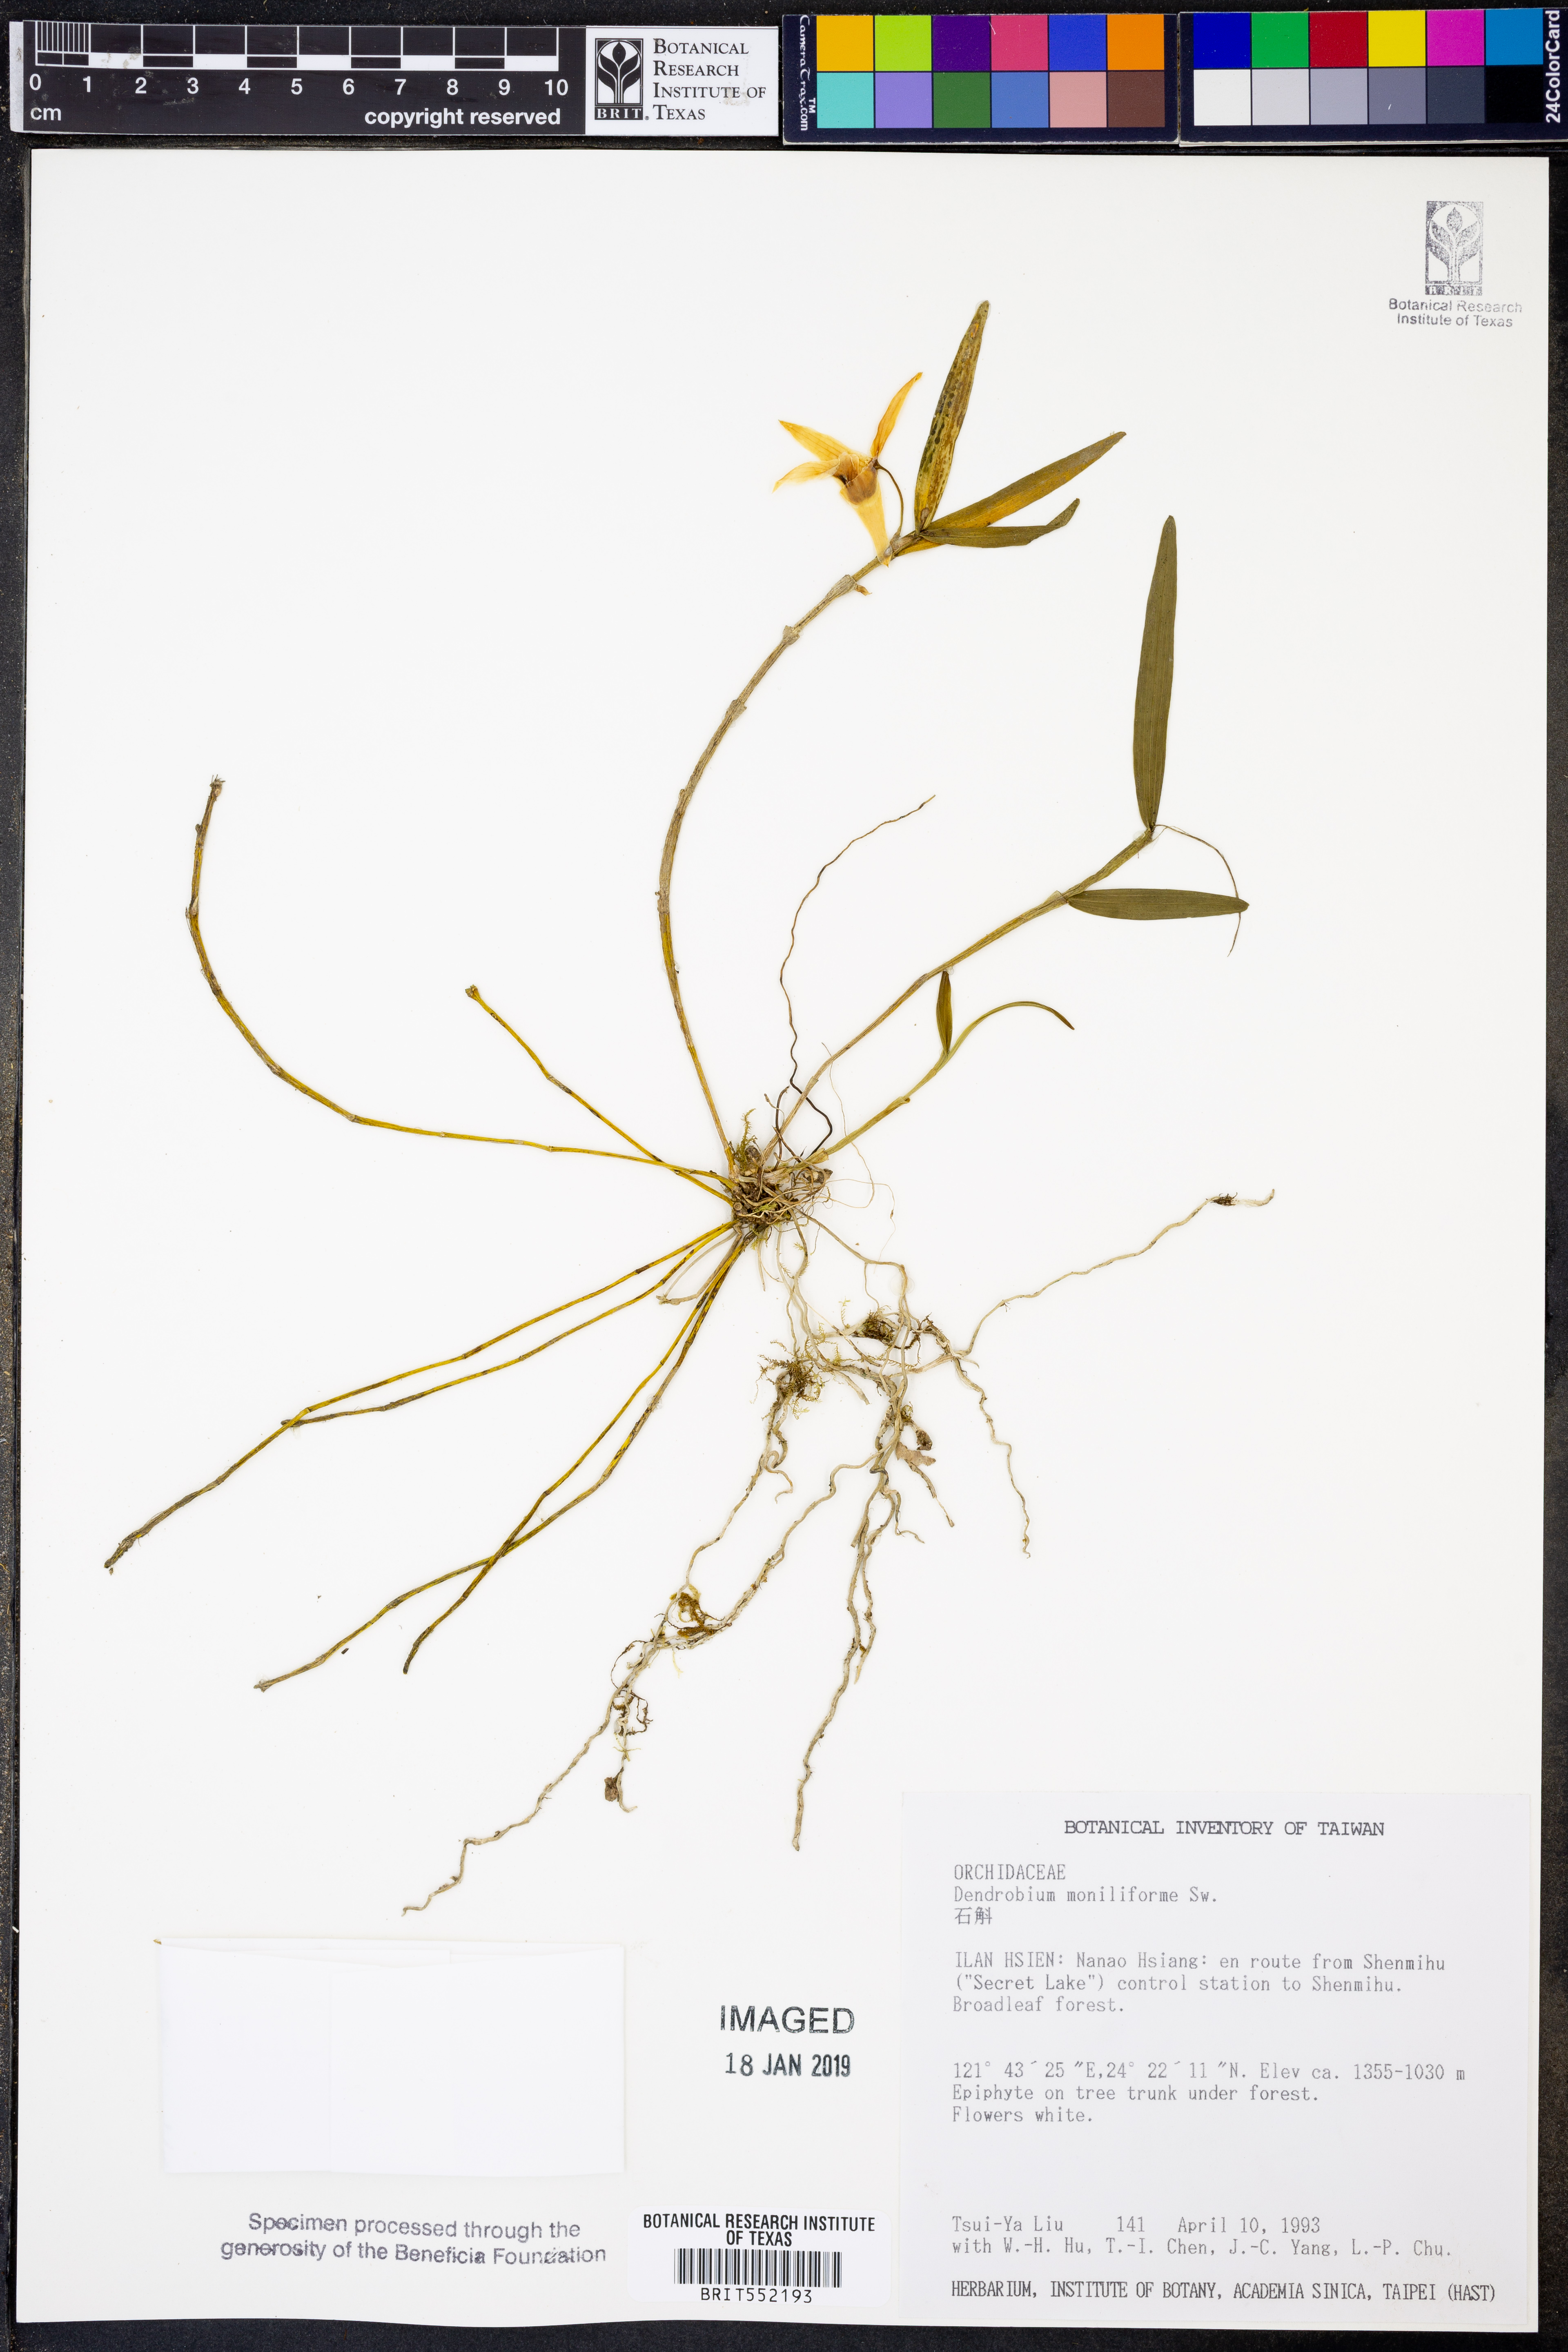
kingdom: Plantae
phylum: Tracheophyta
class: Liliopsida
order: Asparagales
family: Orchidaceae
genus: Dendrobium
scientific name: Dendrobium moniliforme
